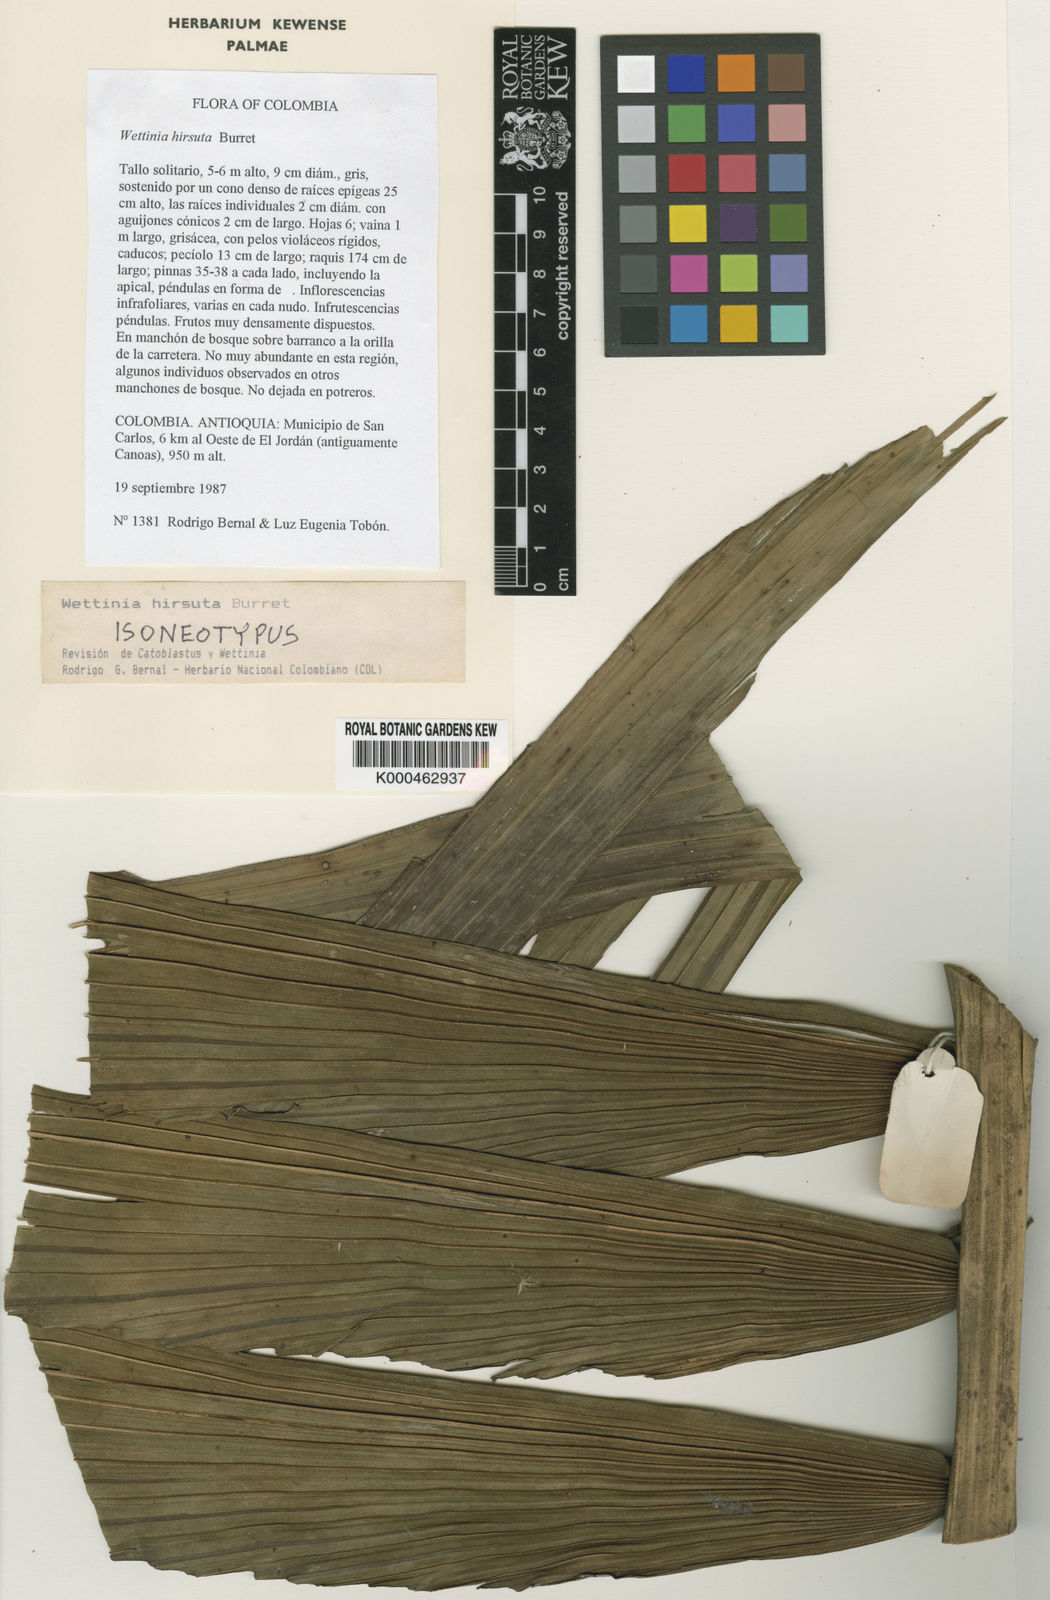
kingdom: Plantae
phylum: Tracheophyta
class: Liliopsida
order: Arecales
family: Arecaceae
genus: Wettinia
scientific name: Wettinia hirsuta
